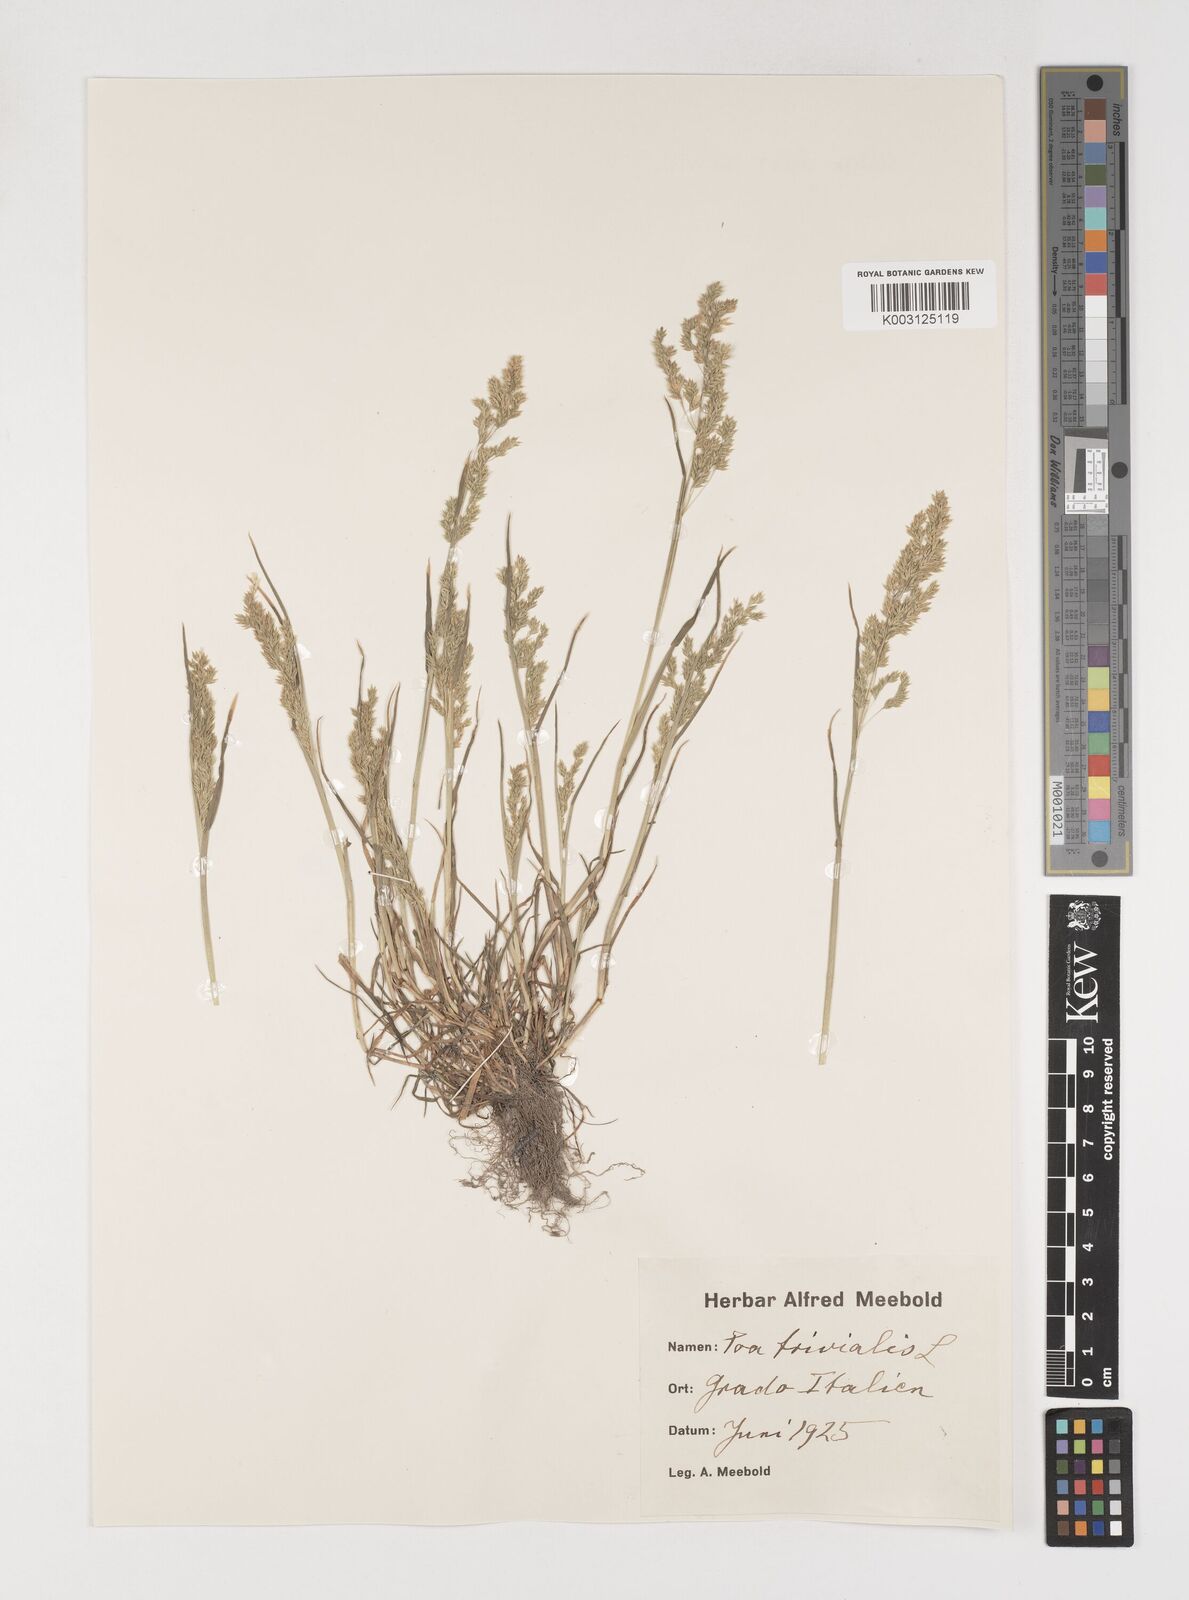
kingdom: Plantae
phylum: Tracheophyta
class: Liliopsida
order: Poales
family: Poaceae
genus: Poa
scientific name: Poa trivialis
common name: Rough bluegrass
